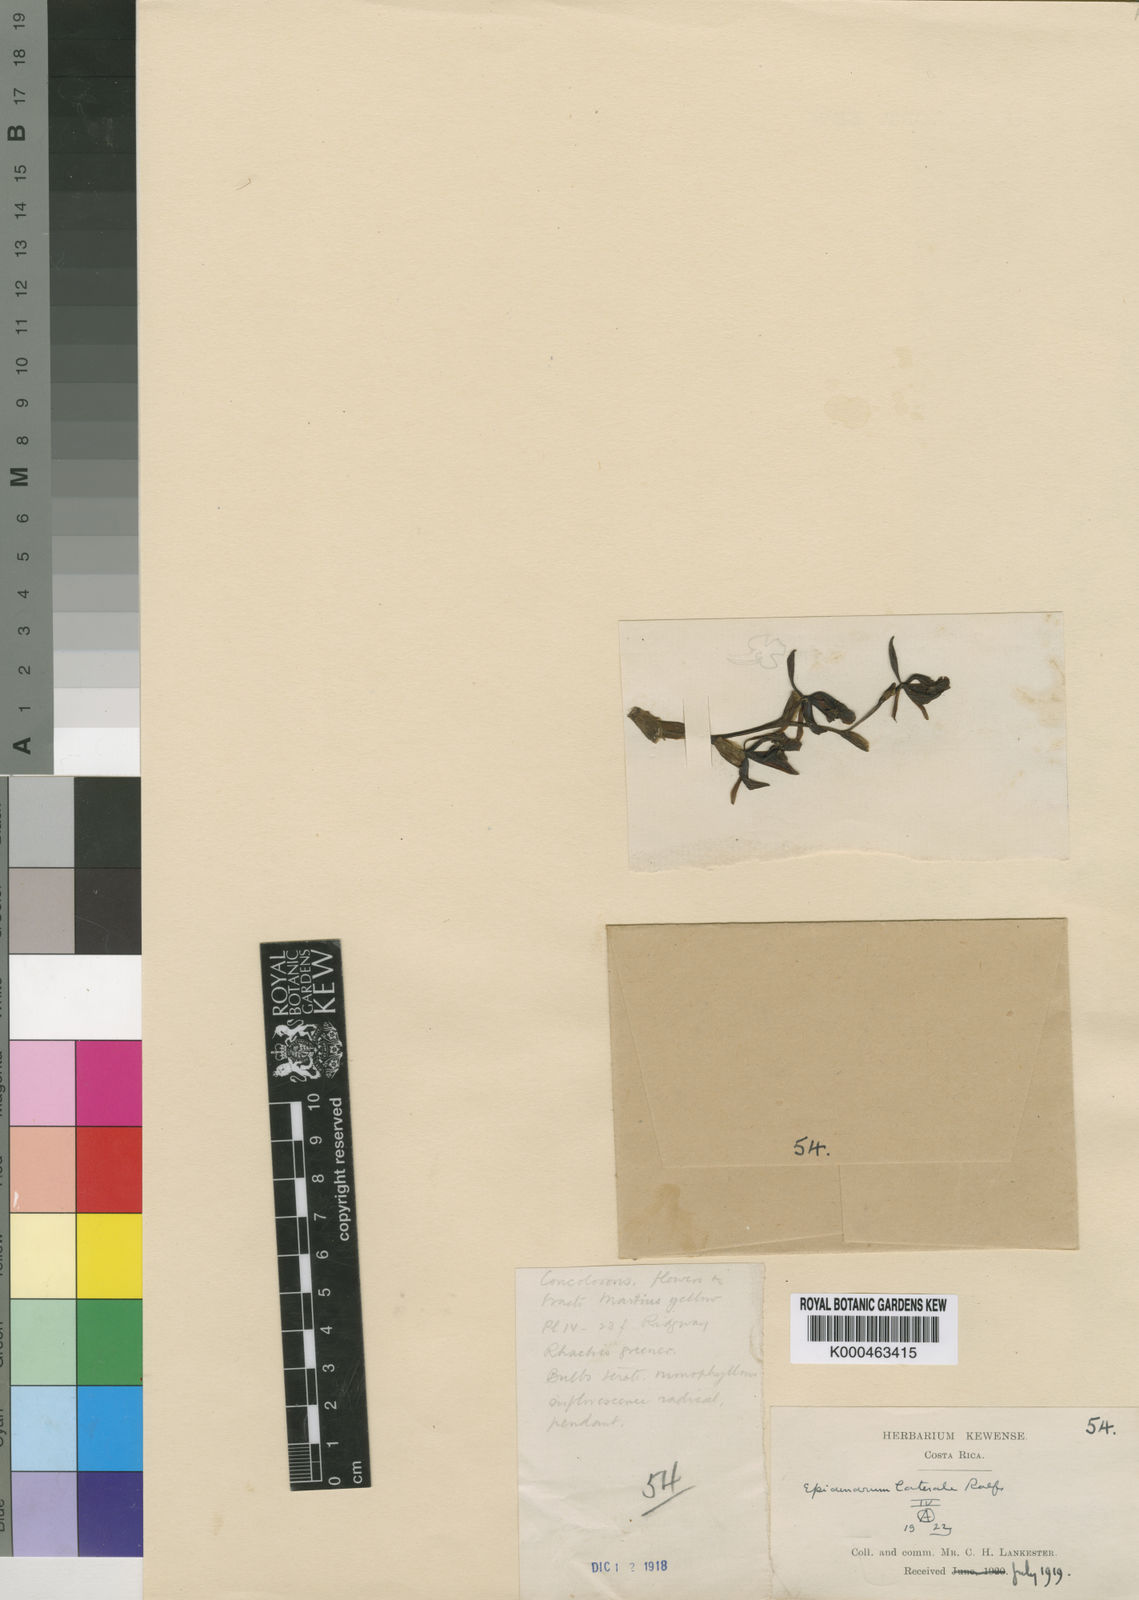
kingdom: Plantae
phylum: Tracheophyta
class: Liliopsida
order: Asparagales
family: Orchidaceae
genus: Epidendrum
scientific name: Epidendrum laterale
